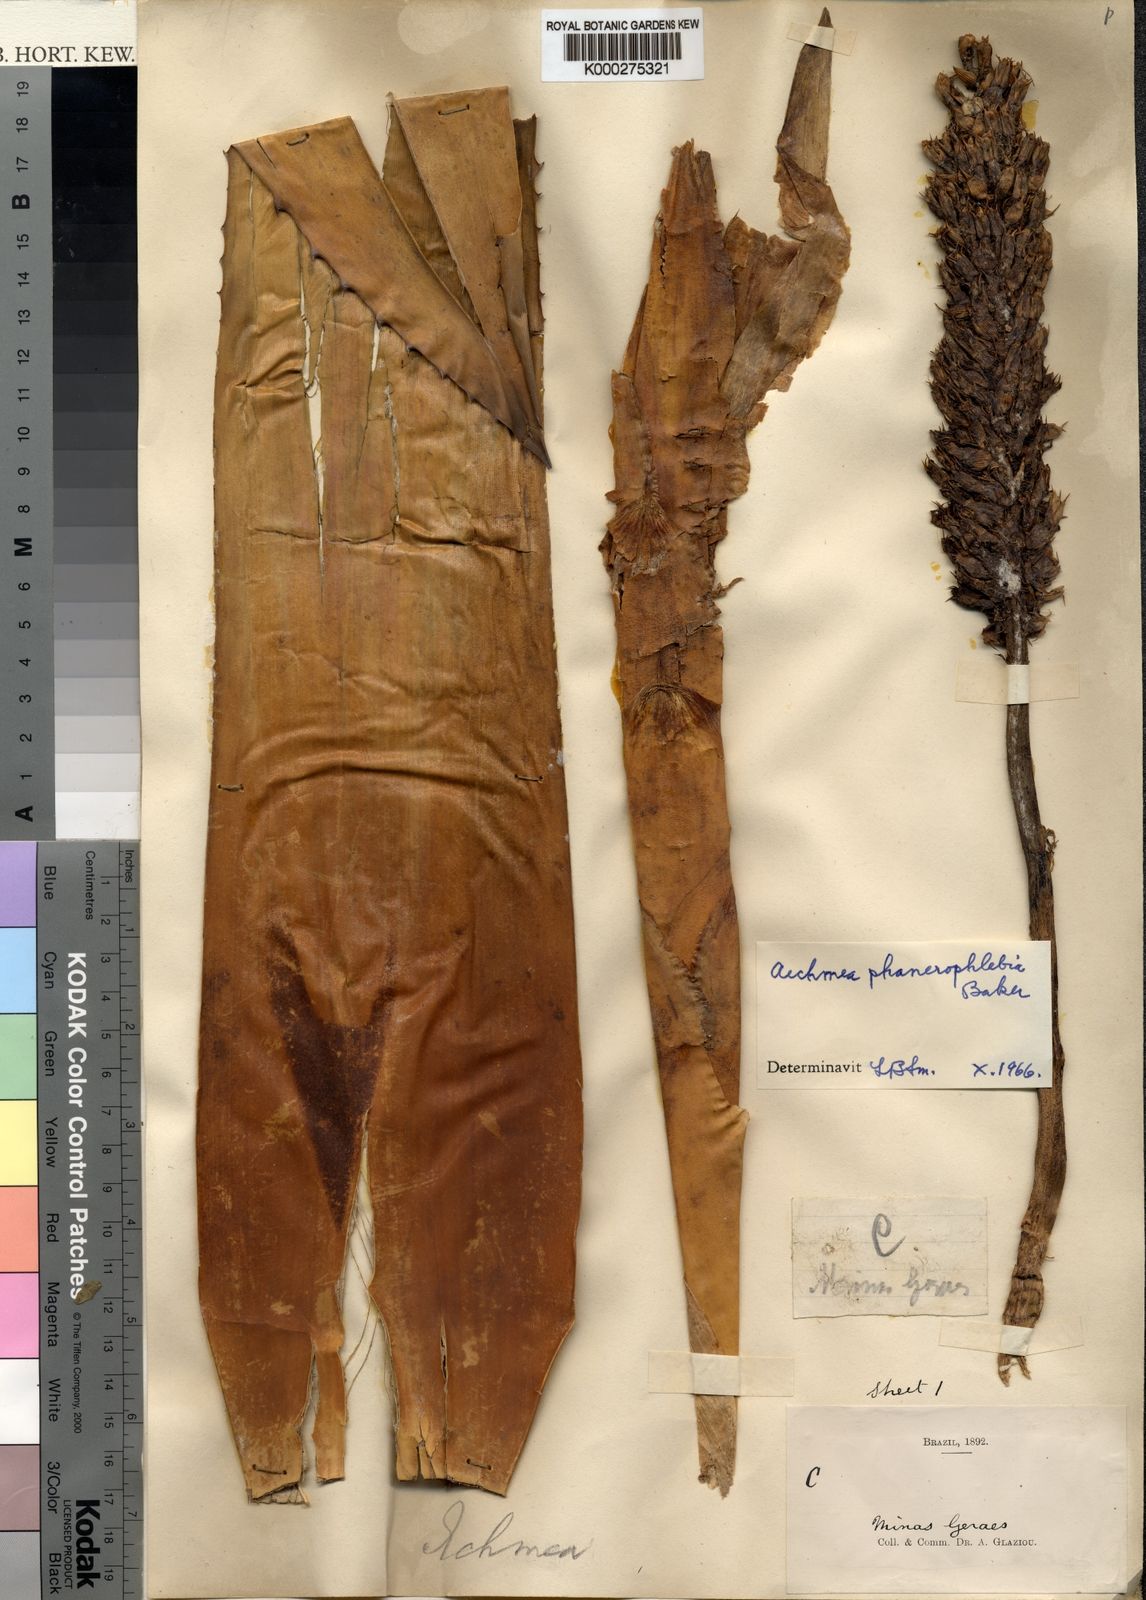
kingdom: Plantae
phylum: Tracheophyta
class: Liliopsida
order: Poales
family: Bromeliaceae
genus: Aechmea
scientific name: Aechmea phanerophlebia
